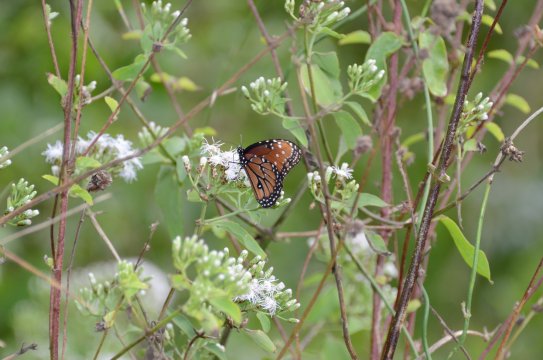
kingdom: Animalia
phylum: Arthropoda
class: Insecta
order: Lepidoptera
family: Nymphalidae
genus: Danaus
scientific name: Danaus gilippus
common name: Queen
